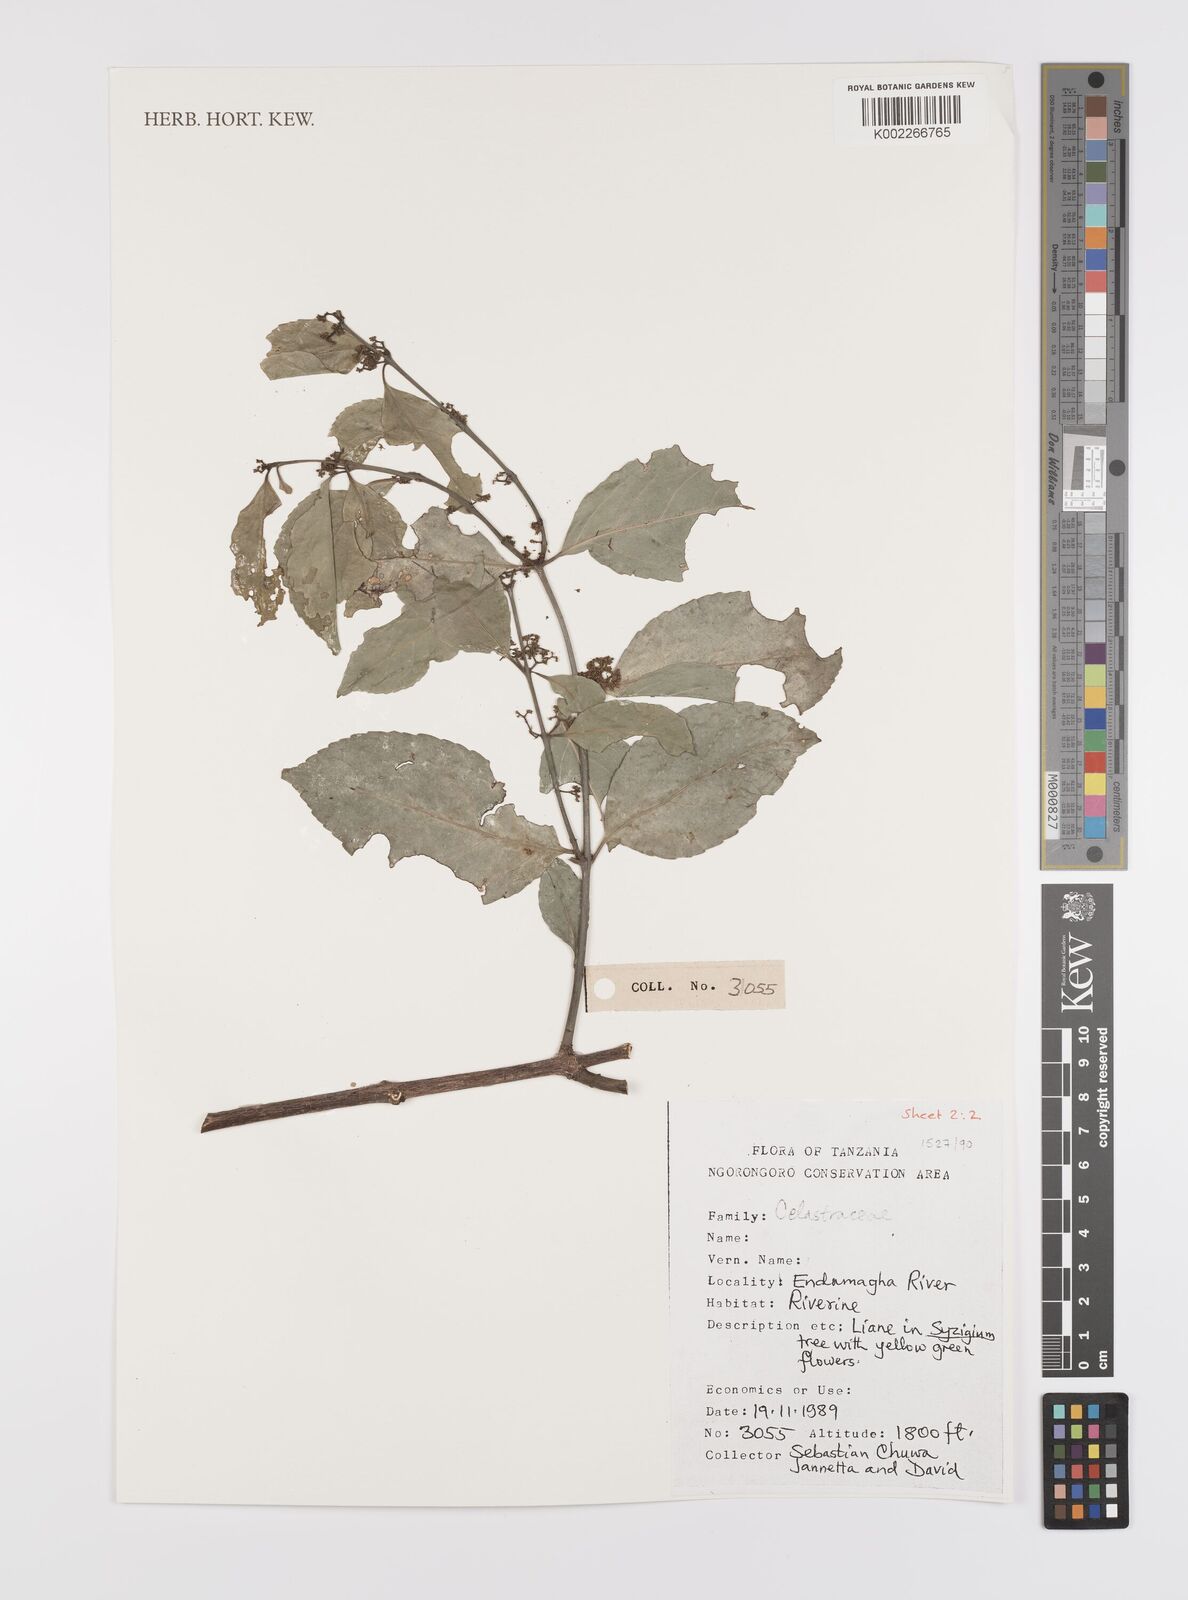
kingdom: Plantae
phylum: Tracheophyta
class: Magnoliopsida
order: Celastrales
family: Celastraceae
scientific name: Celastraceae
